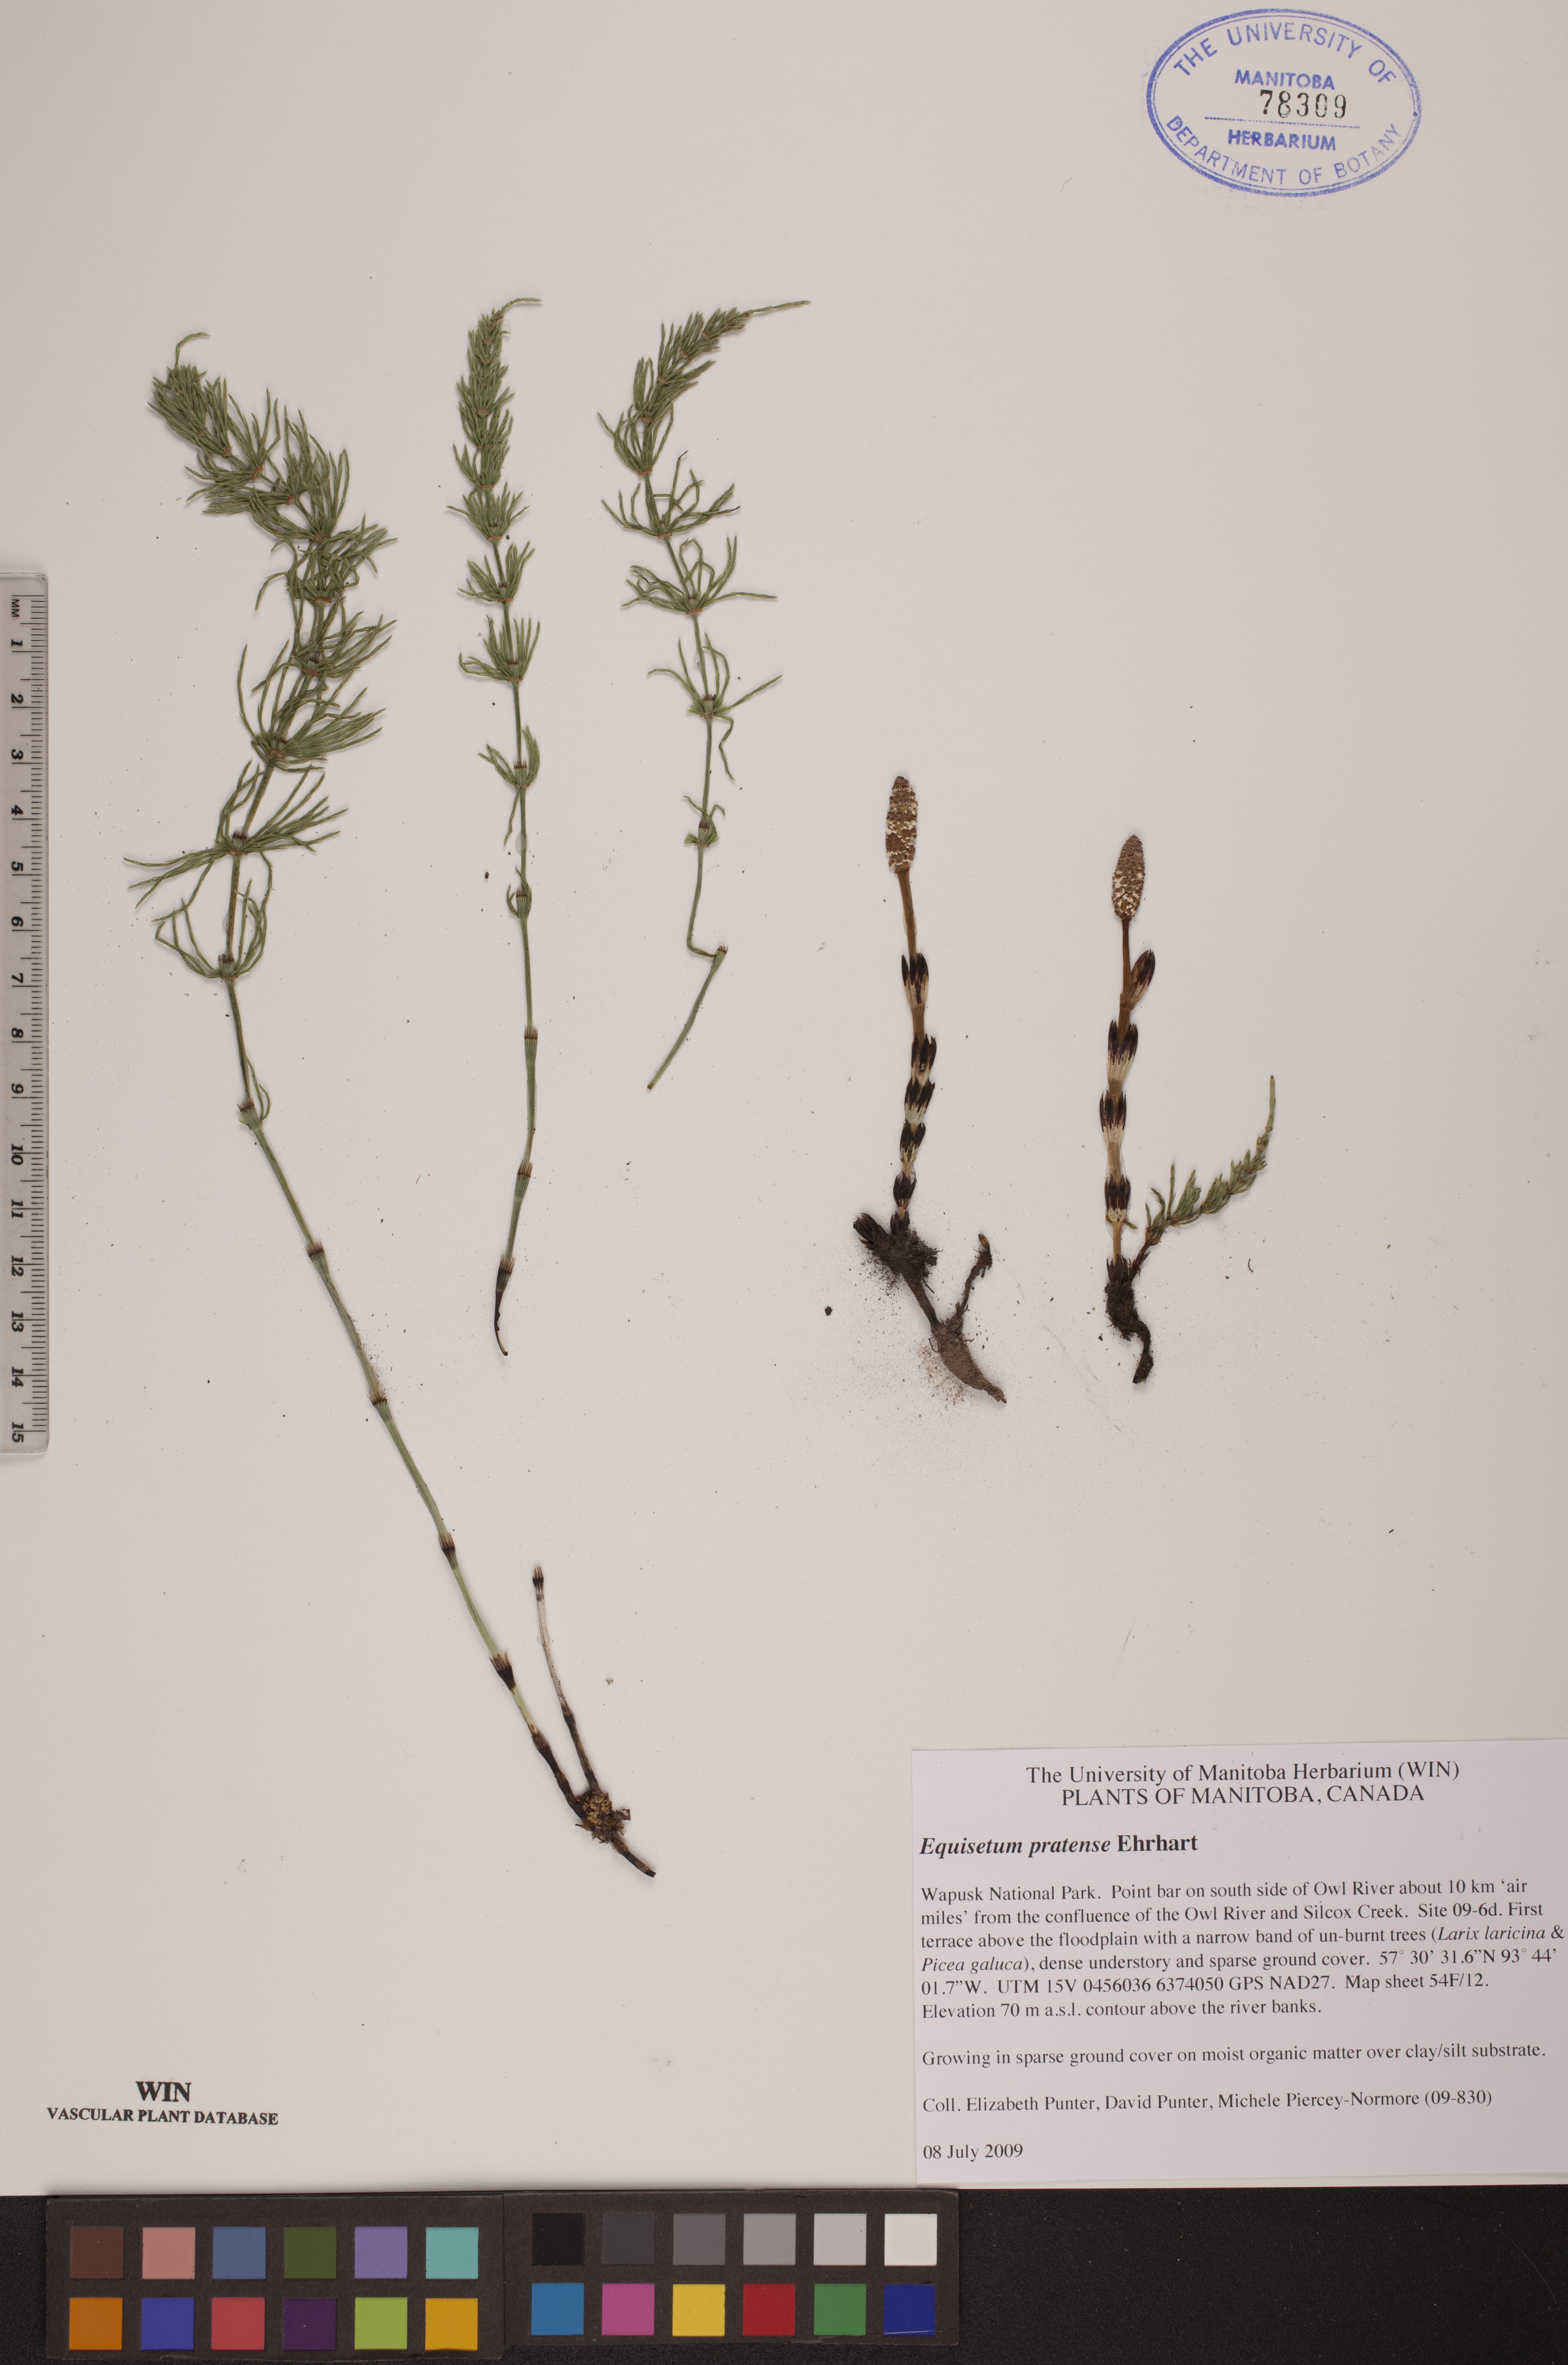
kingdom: Plantae
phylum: Tracheophyta
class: Polypodiopsida
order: Equisetales
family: Equisetaceae
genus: Equisetum
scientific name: Equisetum pratense
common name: Meadow horsetail
